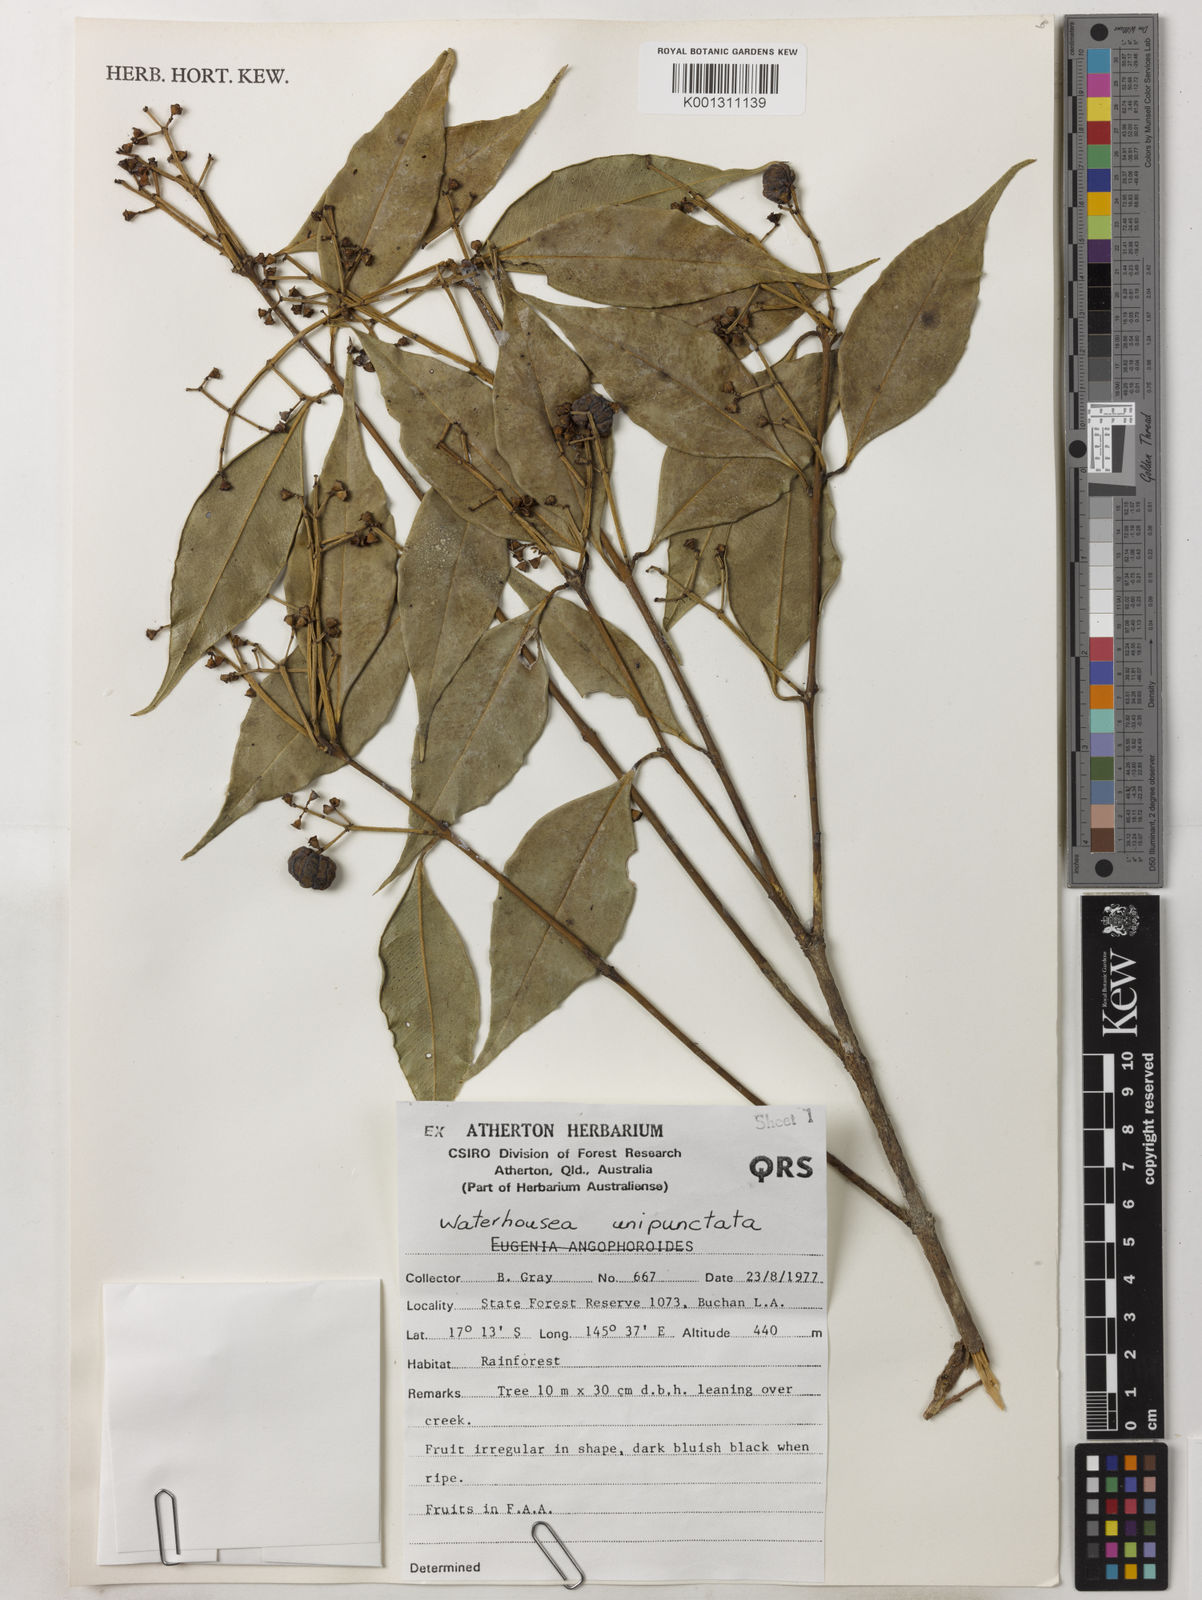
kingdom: Plantae
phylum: Tracheophyta
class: Magnoliopsida
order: Myrtales
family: Myrtaceae
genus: Syzygium
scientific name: Syzygium unipunctatum
